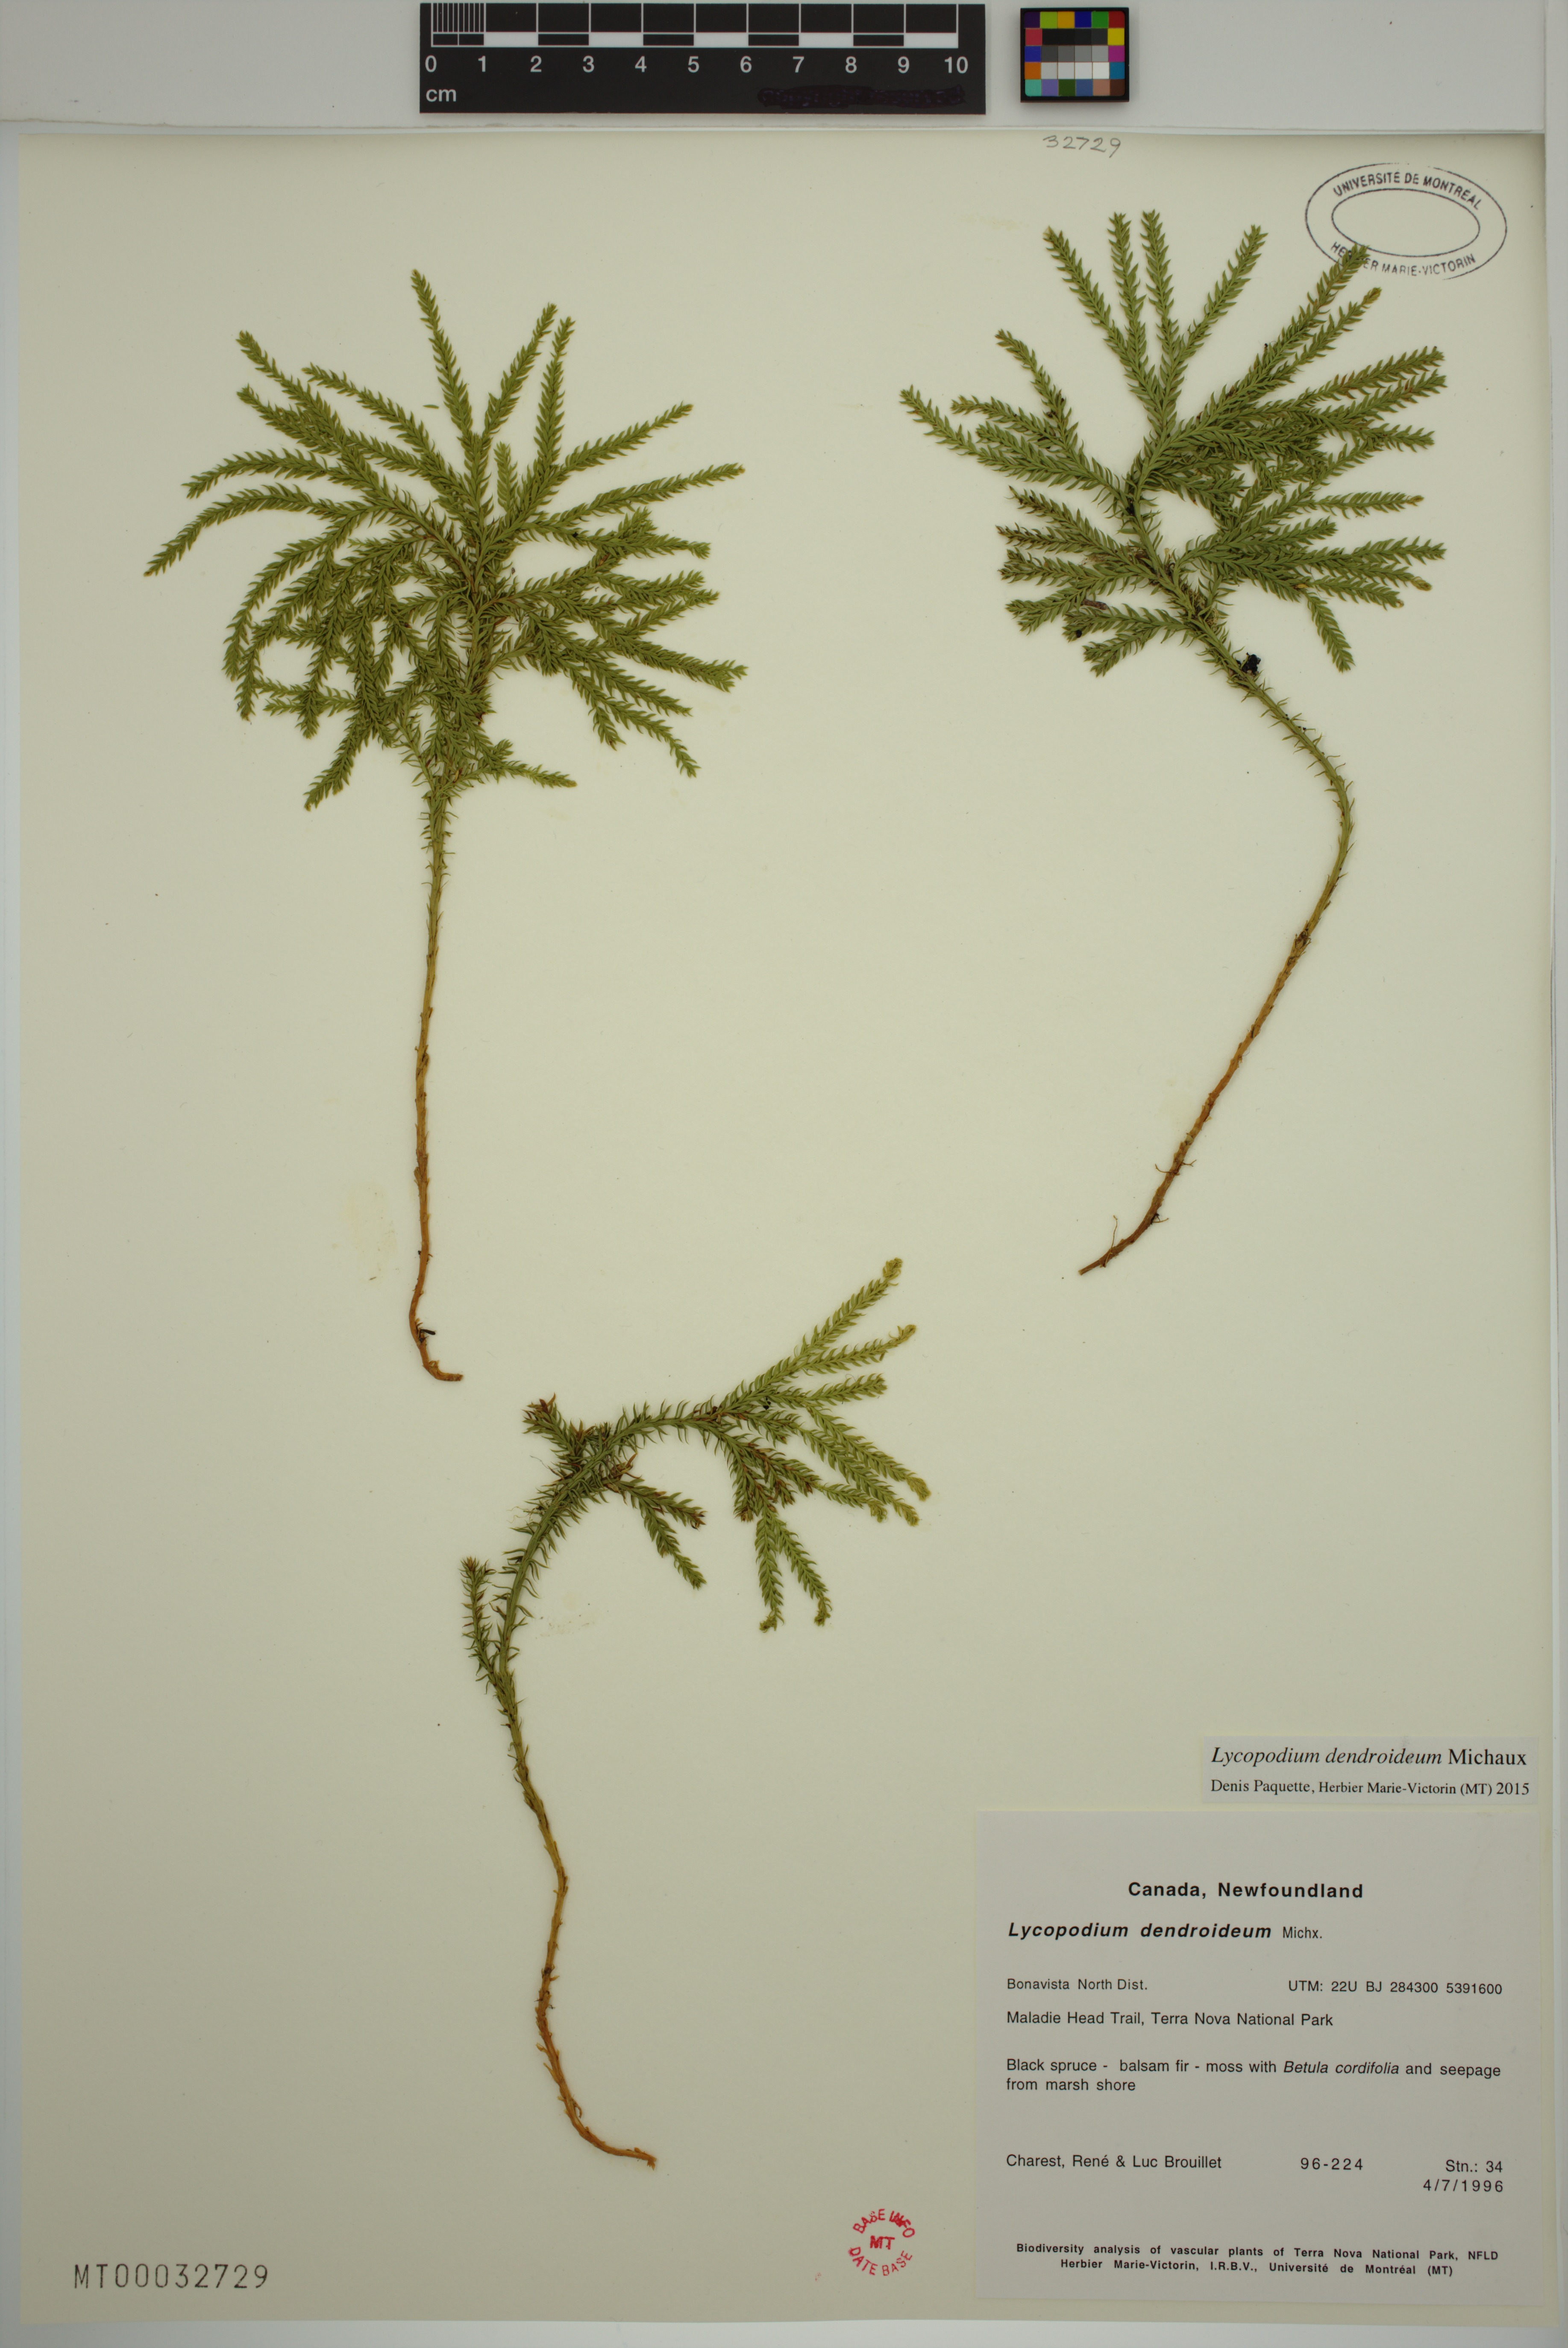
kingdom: Plantae
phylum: Tracheophyta
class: Lycopodiopsida
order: Lycopodiales
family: Lycopodiaceae
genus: Dendrolycopodium
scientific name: Dendrolycopodium dendroideum
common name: Northern tree-clubmoss
